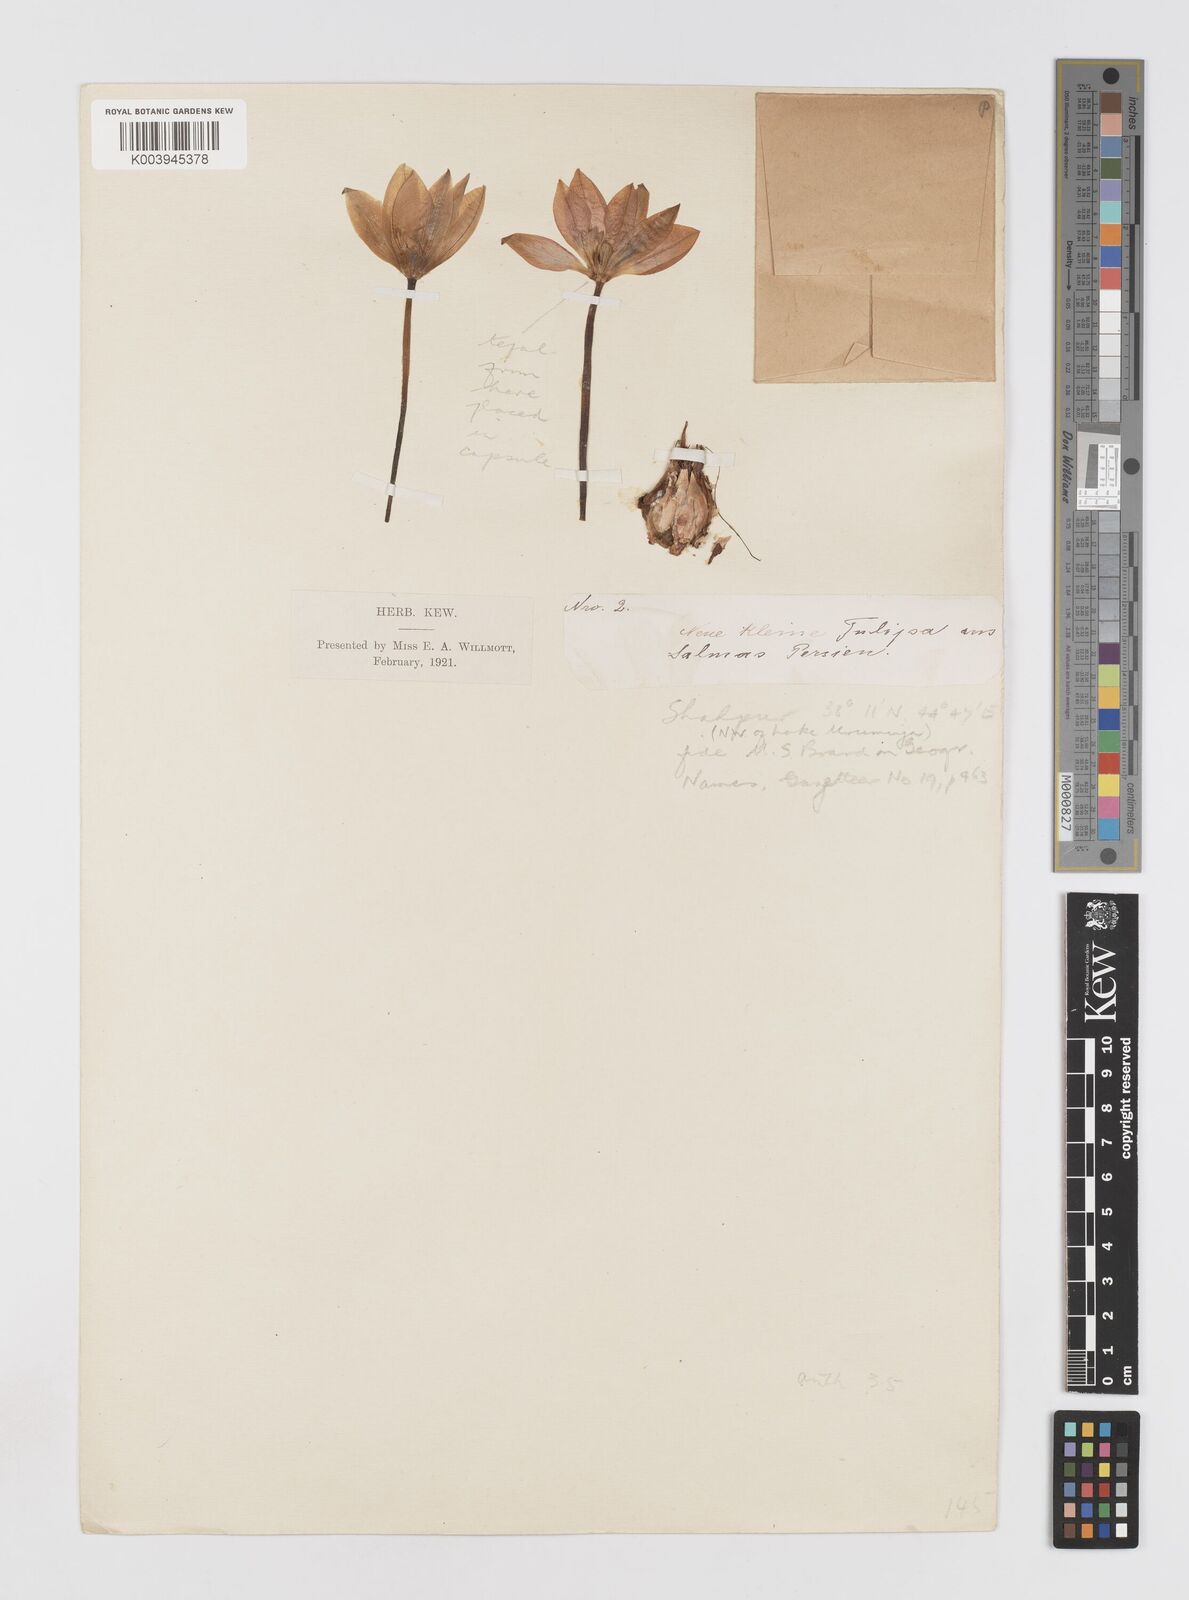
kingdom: Plantae
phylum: Tracheophyta
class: Liliopsida
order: Liliales
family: Liliaceae
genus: Tulipa
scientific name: Tulipa humilis
